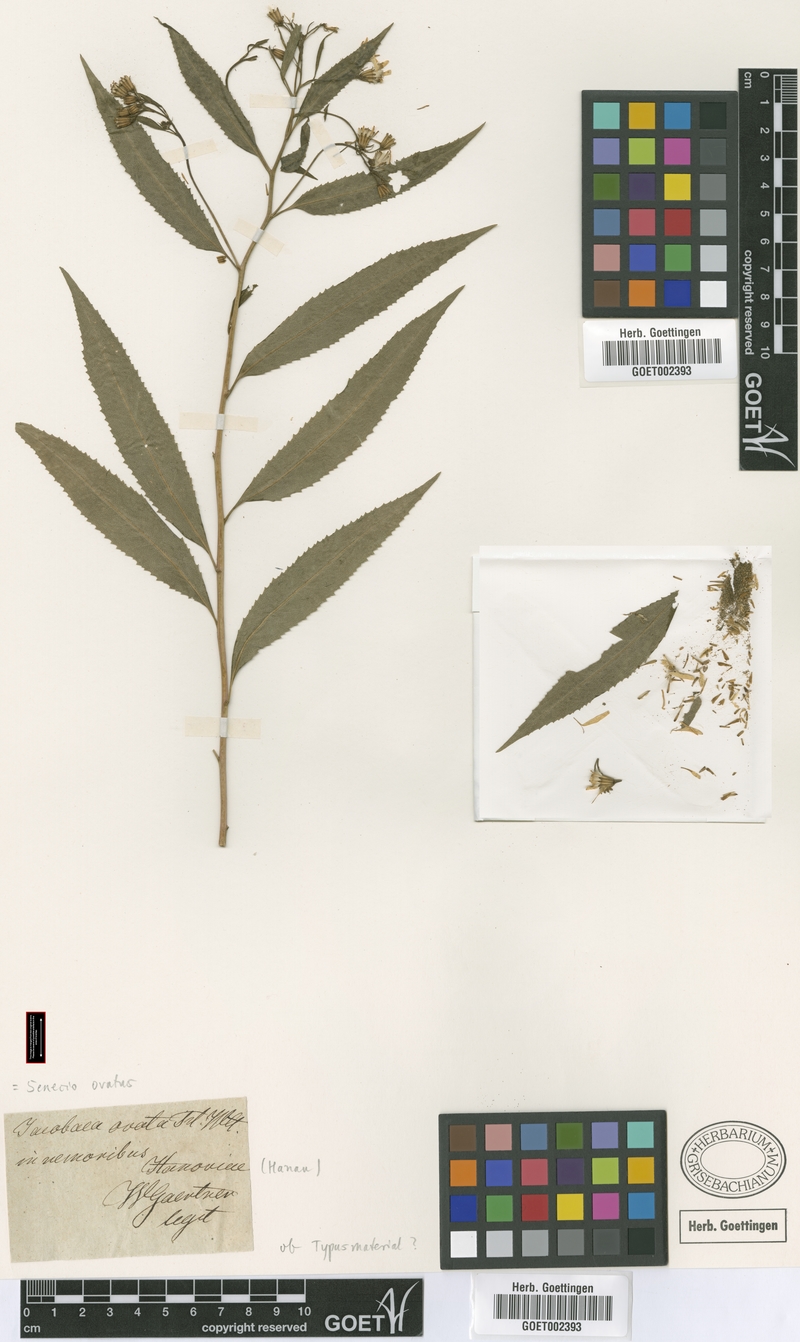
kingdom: Plantae
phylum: Tracheophyta
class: Magnoliopsida
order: Asterales
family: Asteraceae
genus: Senecio
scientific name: Senecio ovatus
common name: Wood ragwort
